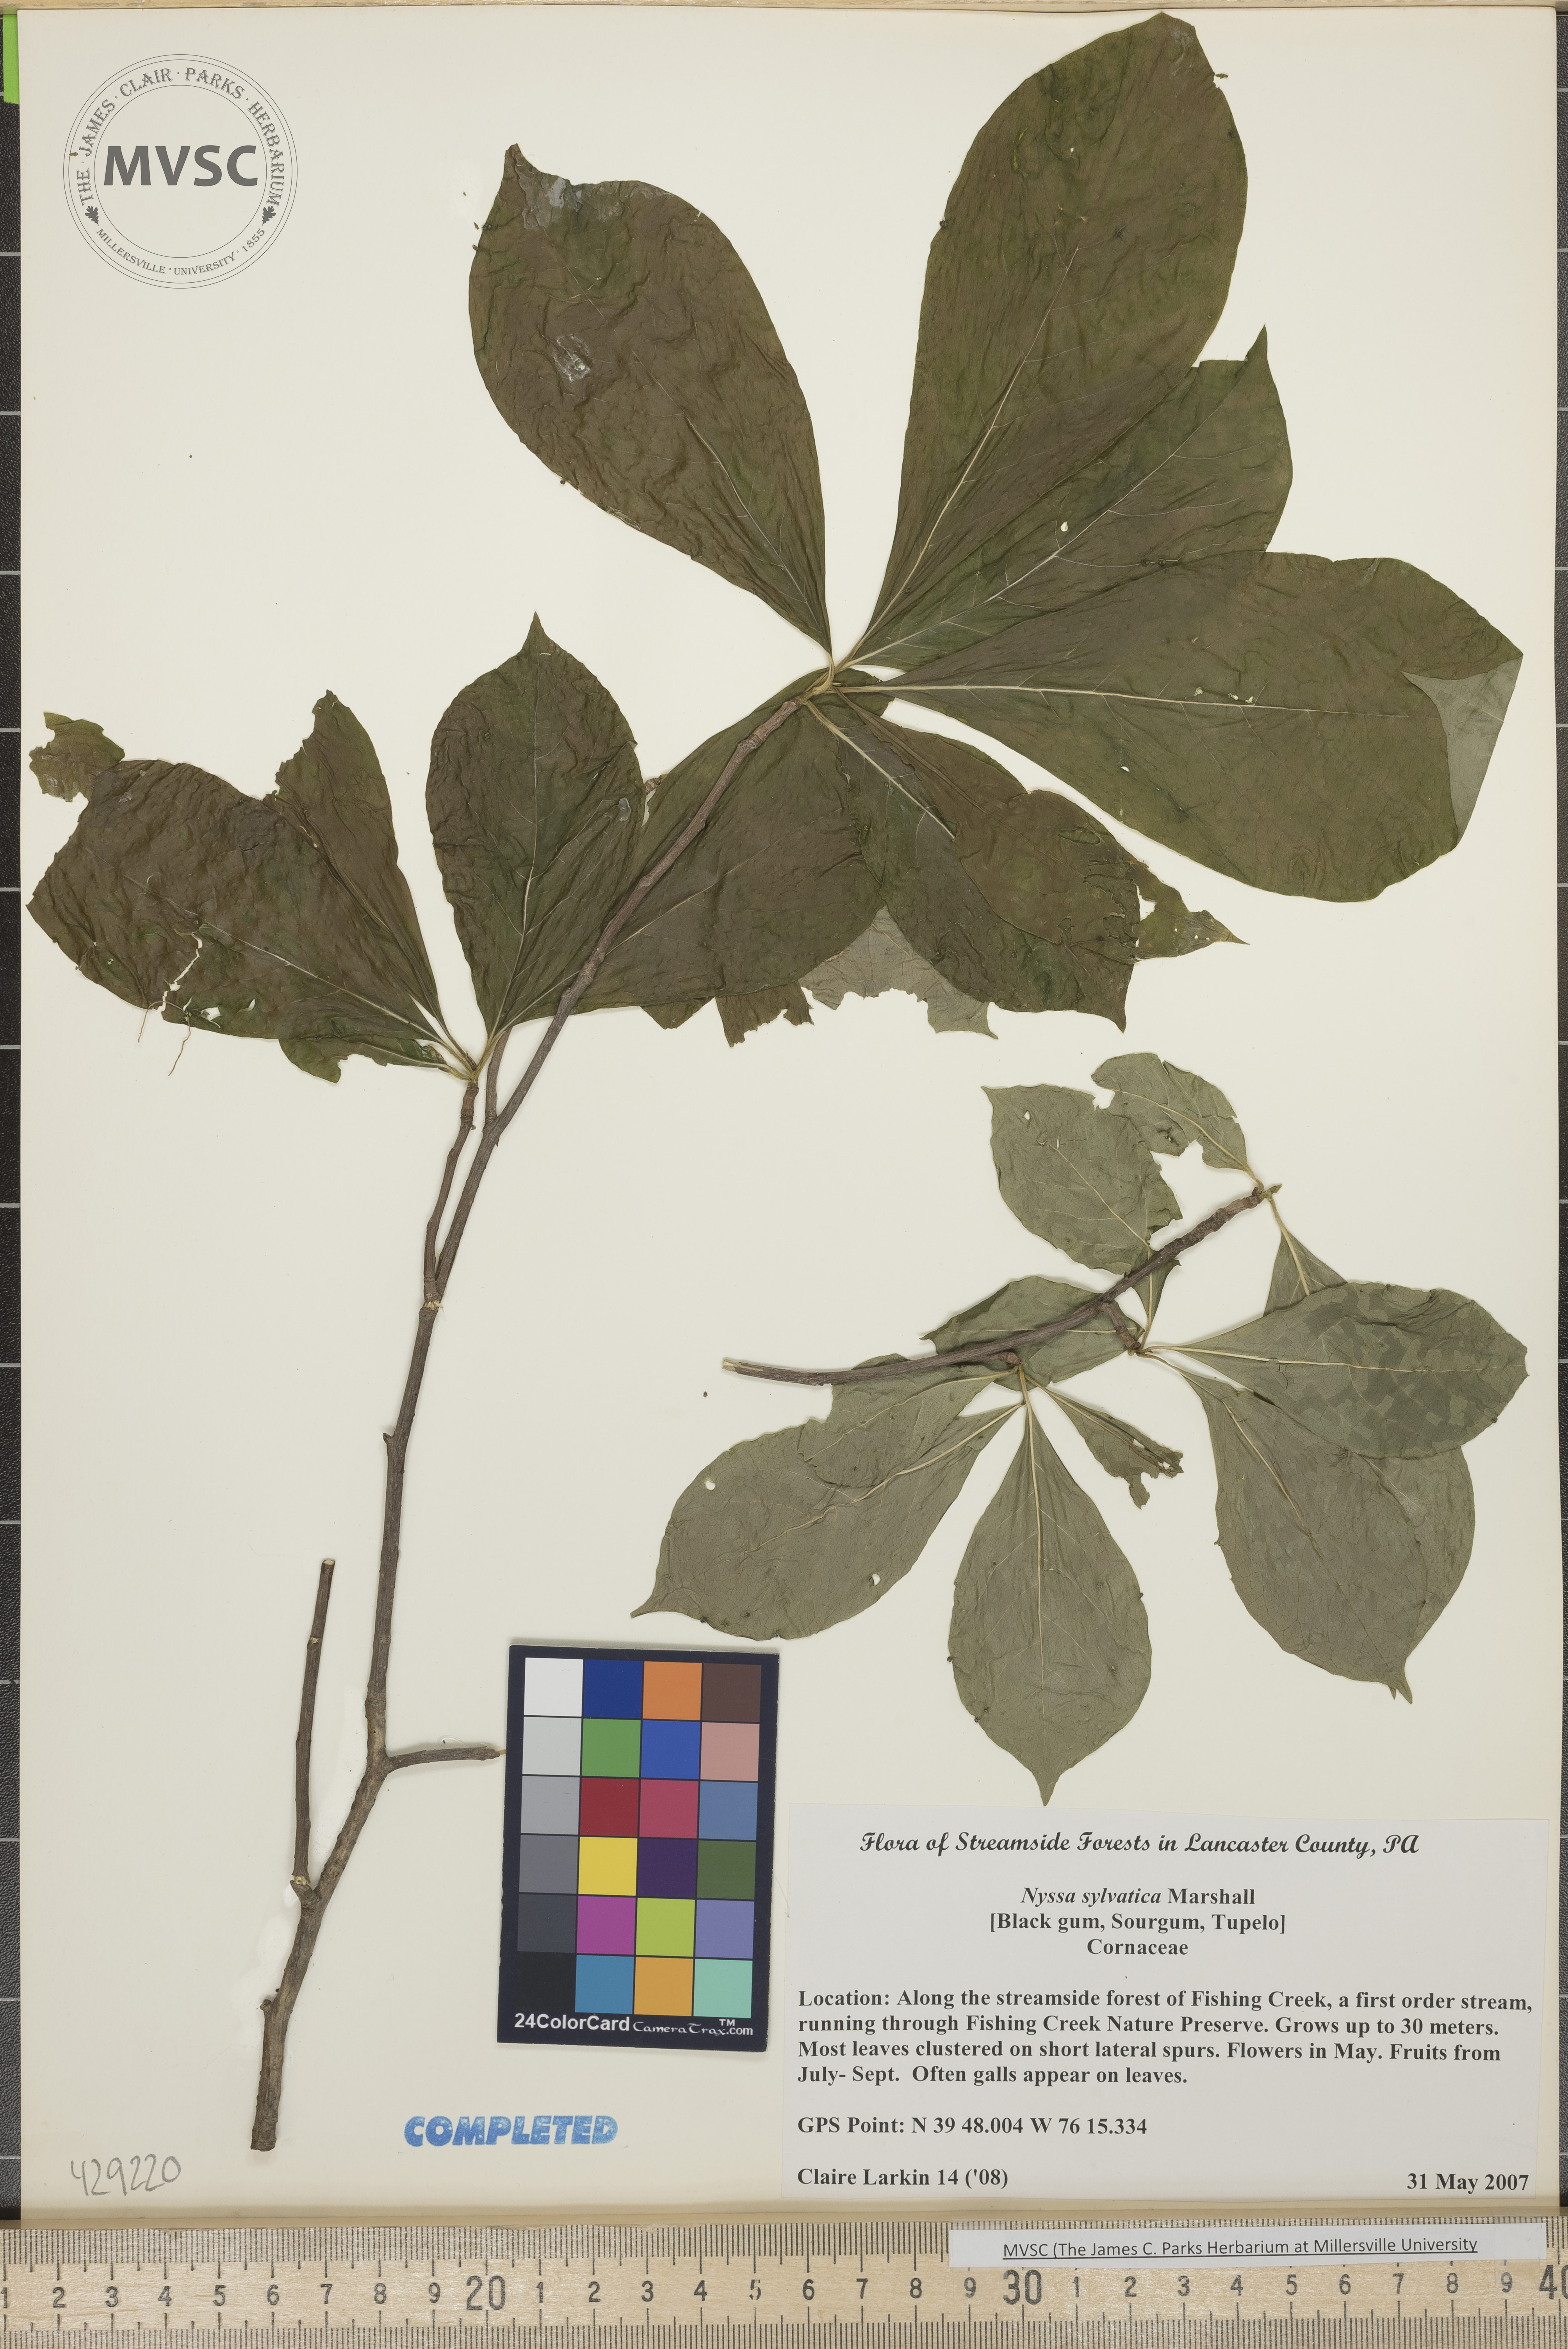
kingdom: Plantae
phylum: Tracheophyta
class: Magnoliopsida
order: Cornales
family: Nyssaceae
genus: Nyssa
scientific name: Nyssa sylvatica
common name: Black gum
